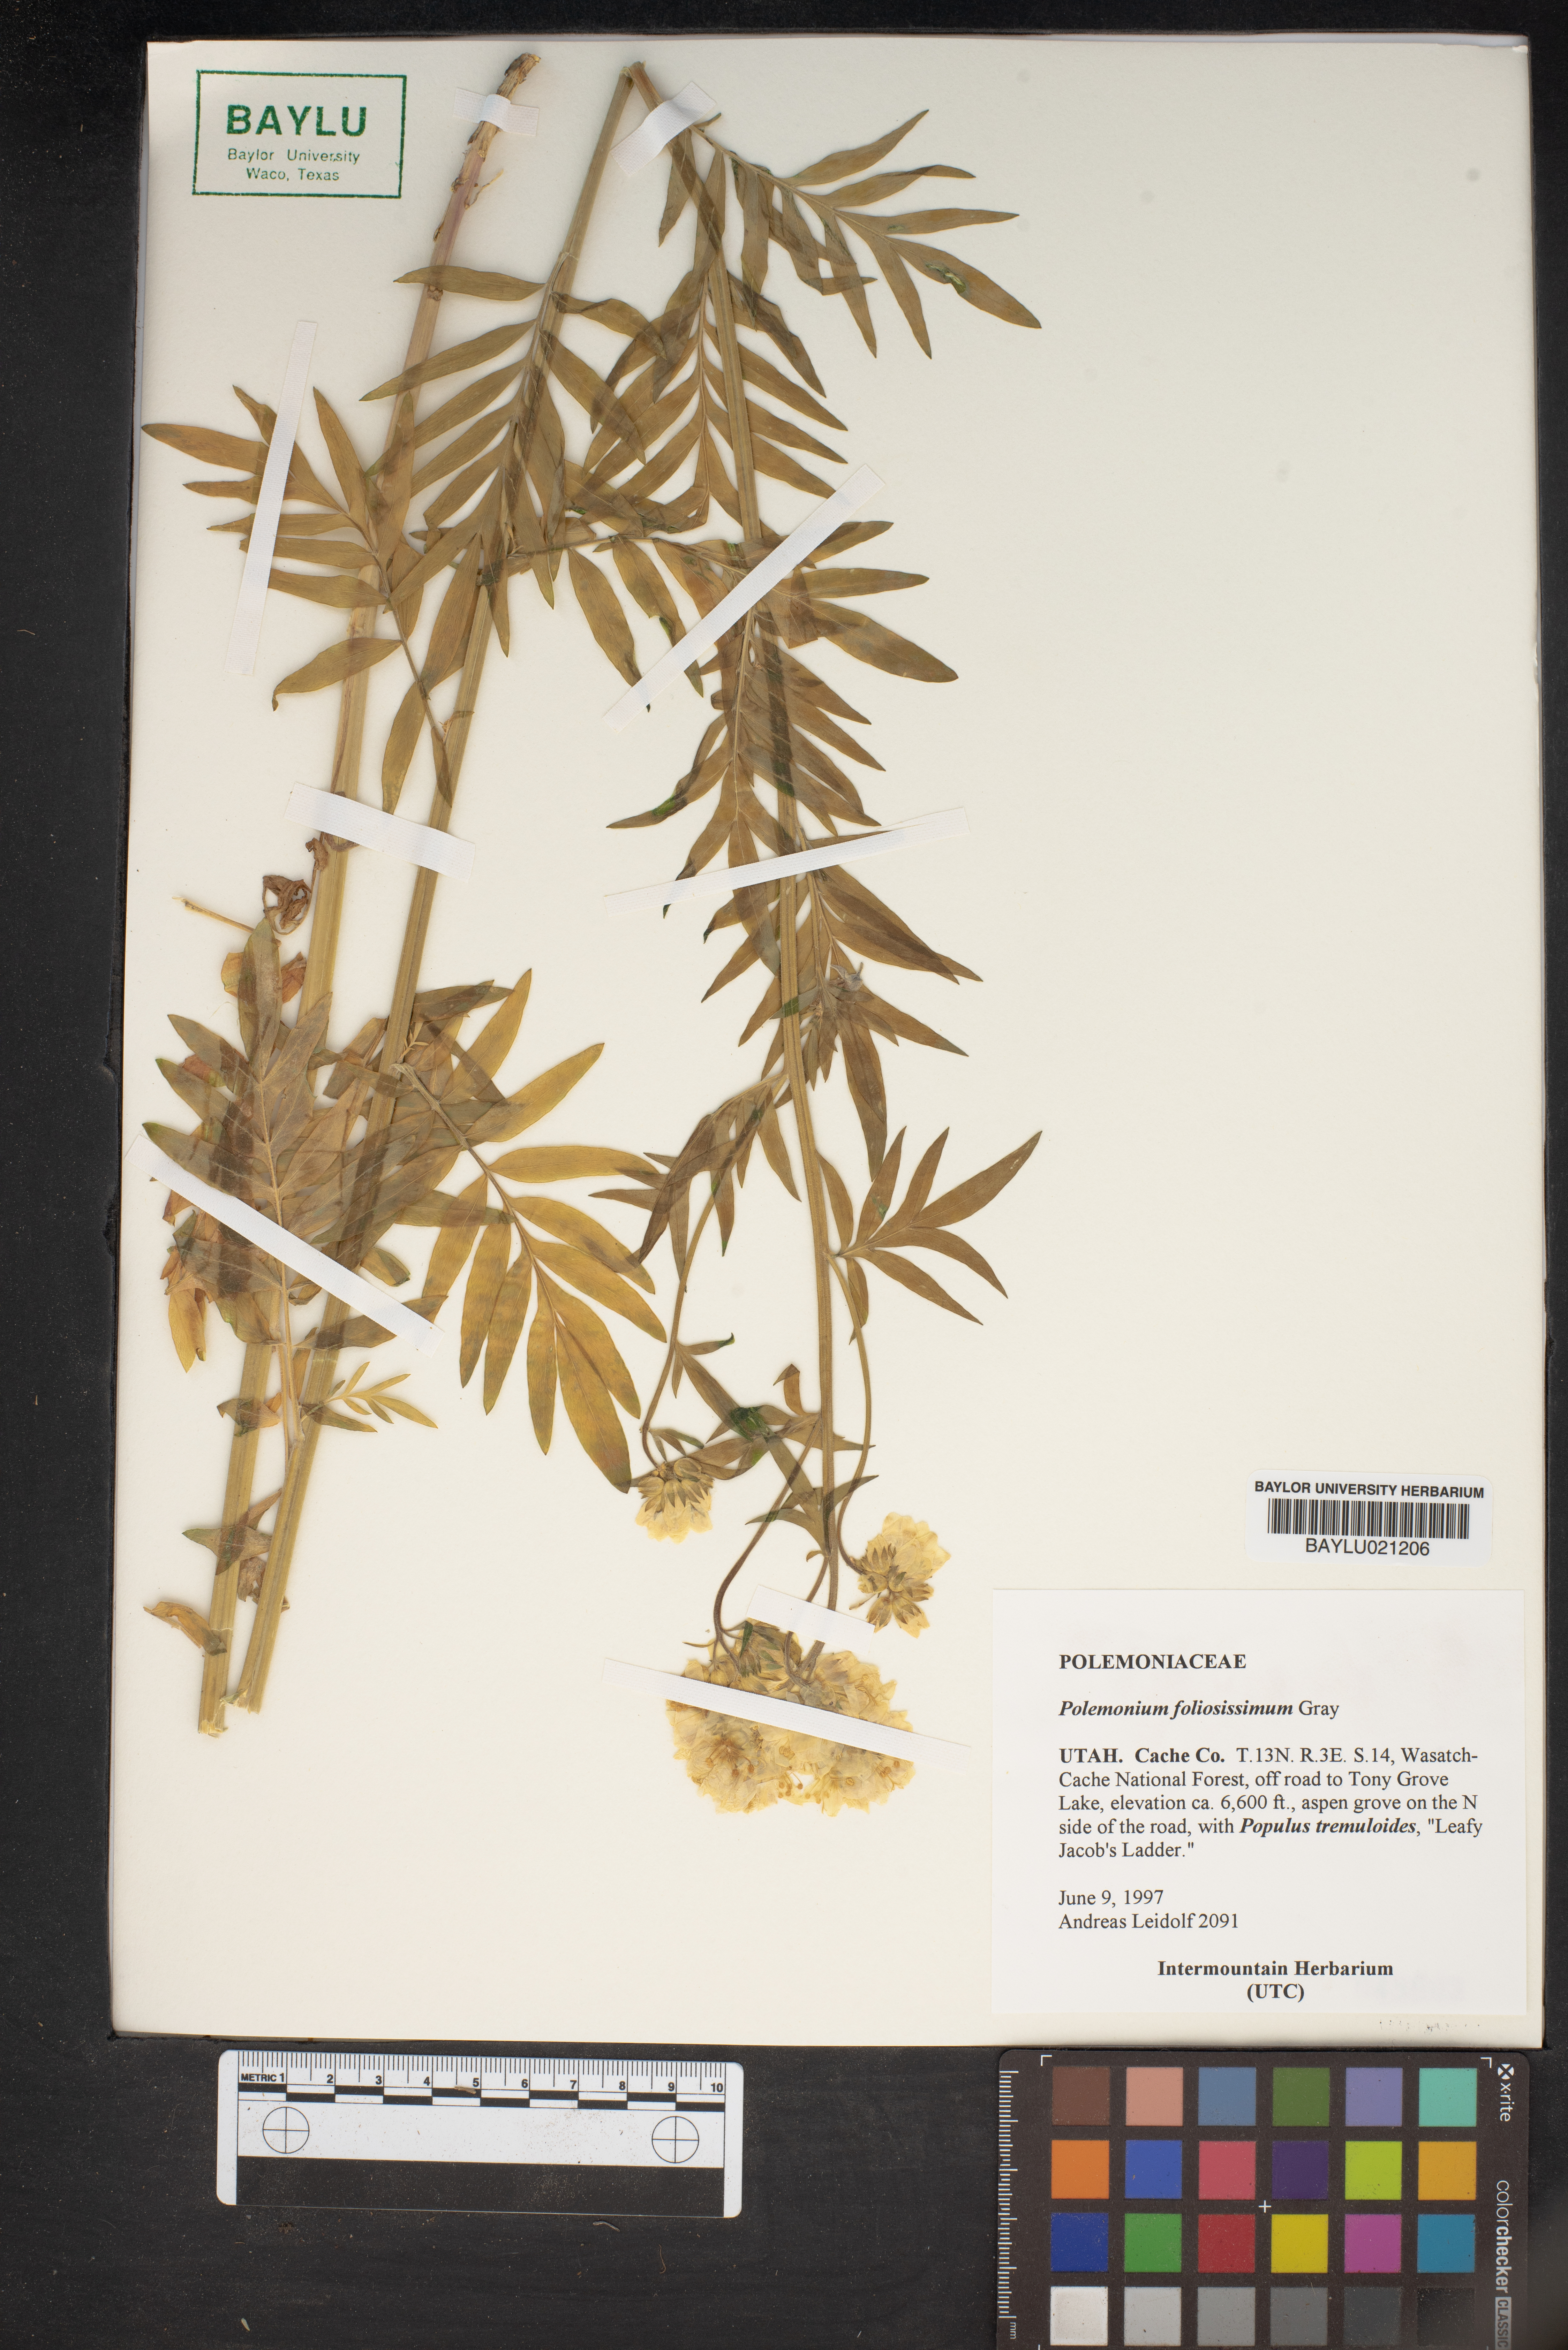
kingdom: Plantae
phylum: Tracheophyta
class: Magnoliopsida
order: Ericales
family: Polemoniaceae
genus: Polemonium
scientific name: Polemonium foliosissimum
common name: Leafy jacob's-ladder
